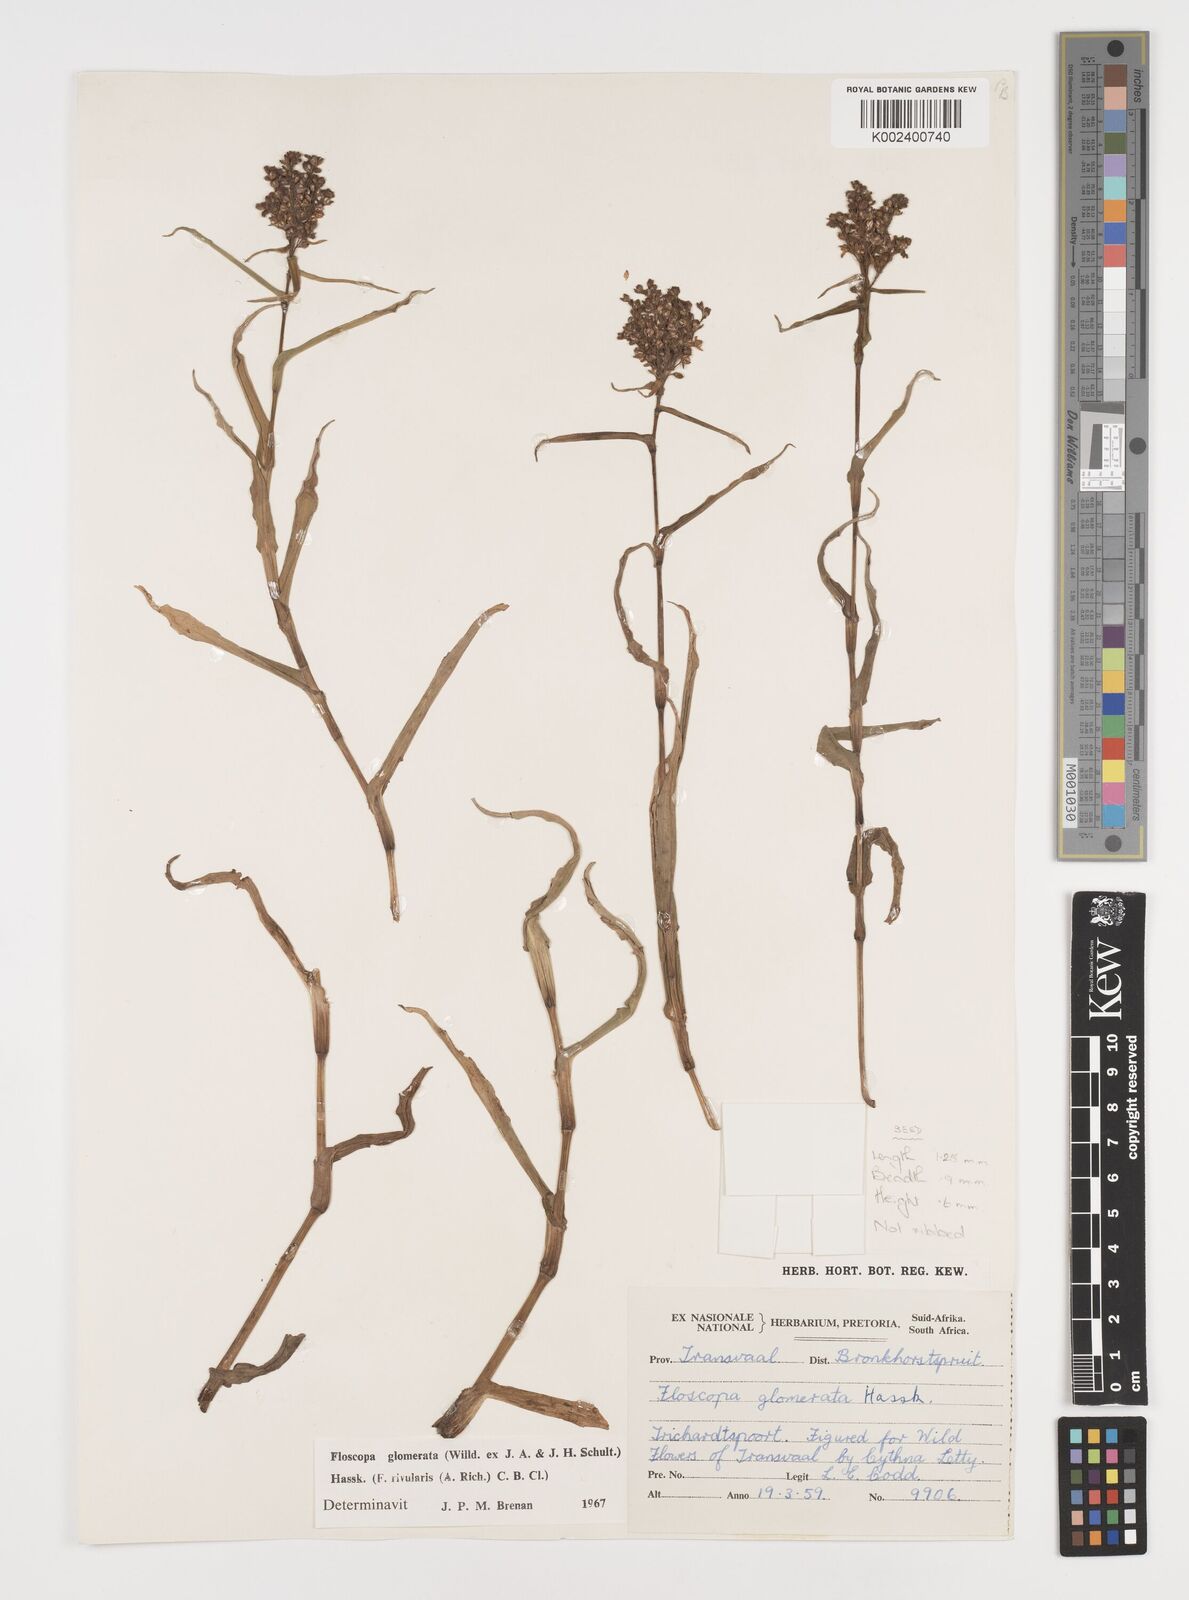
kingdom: Plantae
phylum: Tracheophyta
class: Liliopsida
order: Commelinales
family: Commelinaceae
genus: Floscopa
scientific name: Floscopa glomerata
